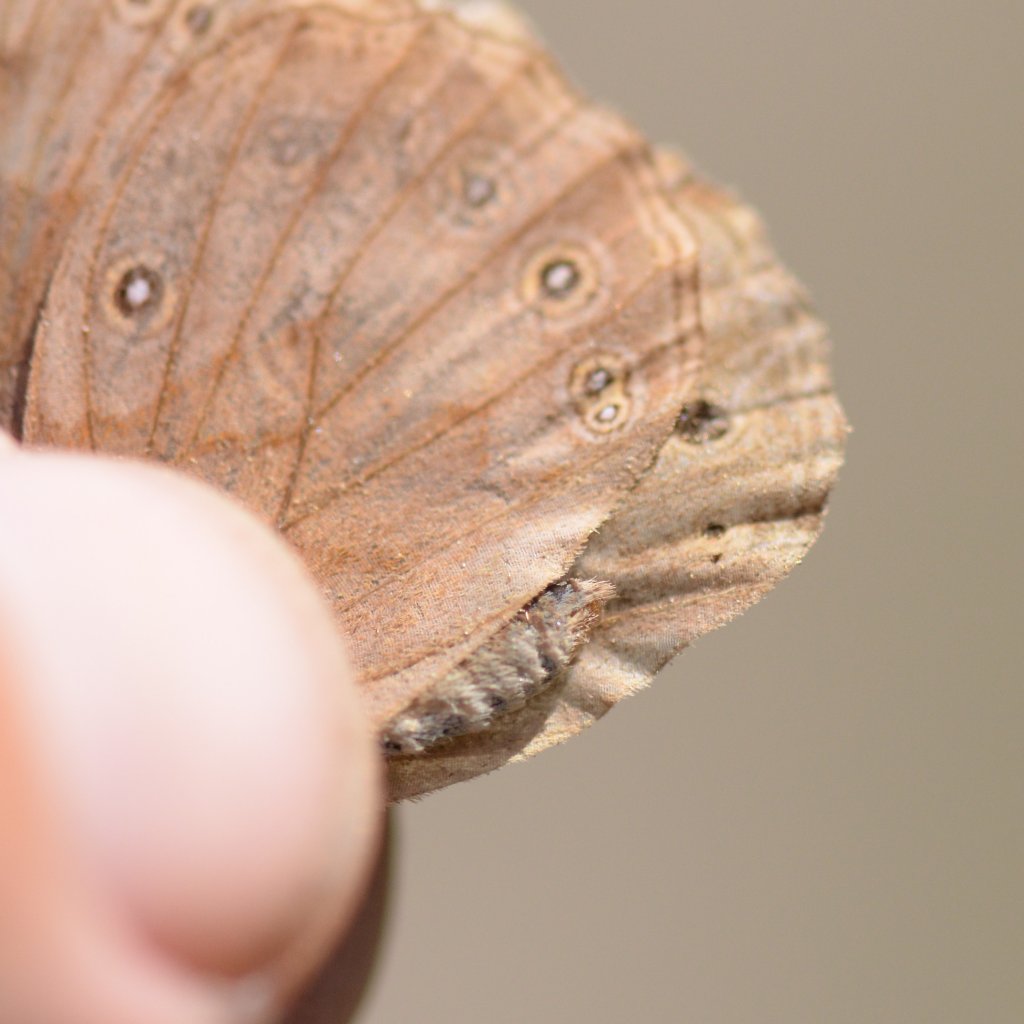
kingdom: Animalia
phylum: Arthropoda
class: Insecta
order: Lepidoptera
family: Nymphalidae
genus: Lethe
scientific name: Lethe eurydice
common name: Eyed Brown
